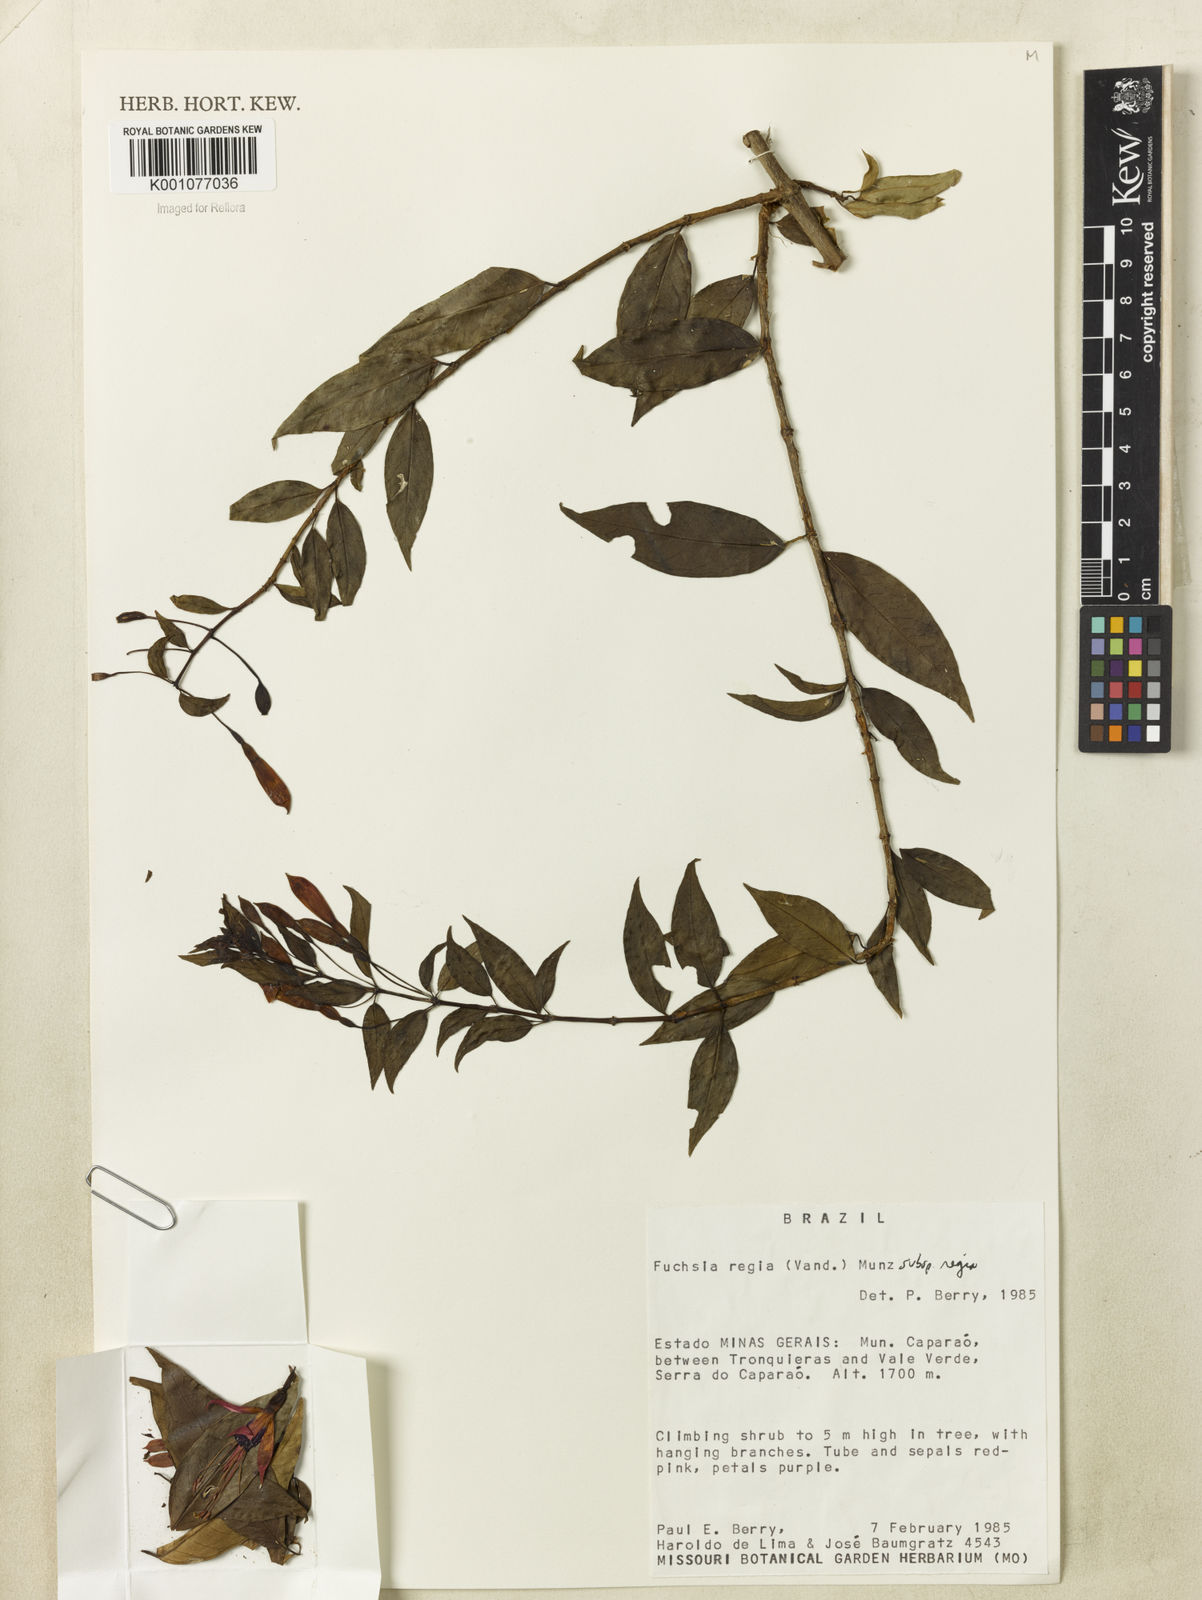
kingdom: Plantae
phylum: Tracheophyta
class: Magnoliopsida
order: Myrtales
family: Onagraceae
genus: Fuchsia
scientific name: Fuchsia regia
